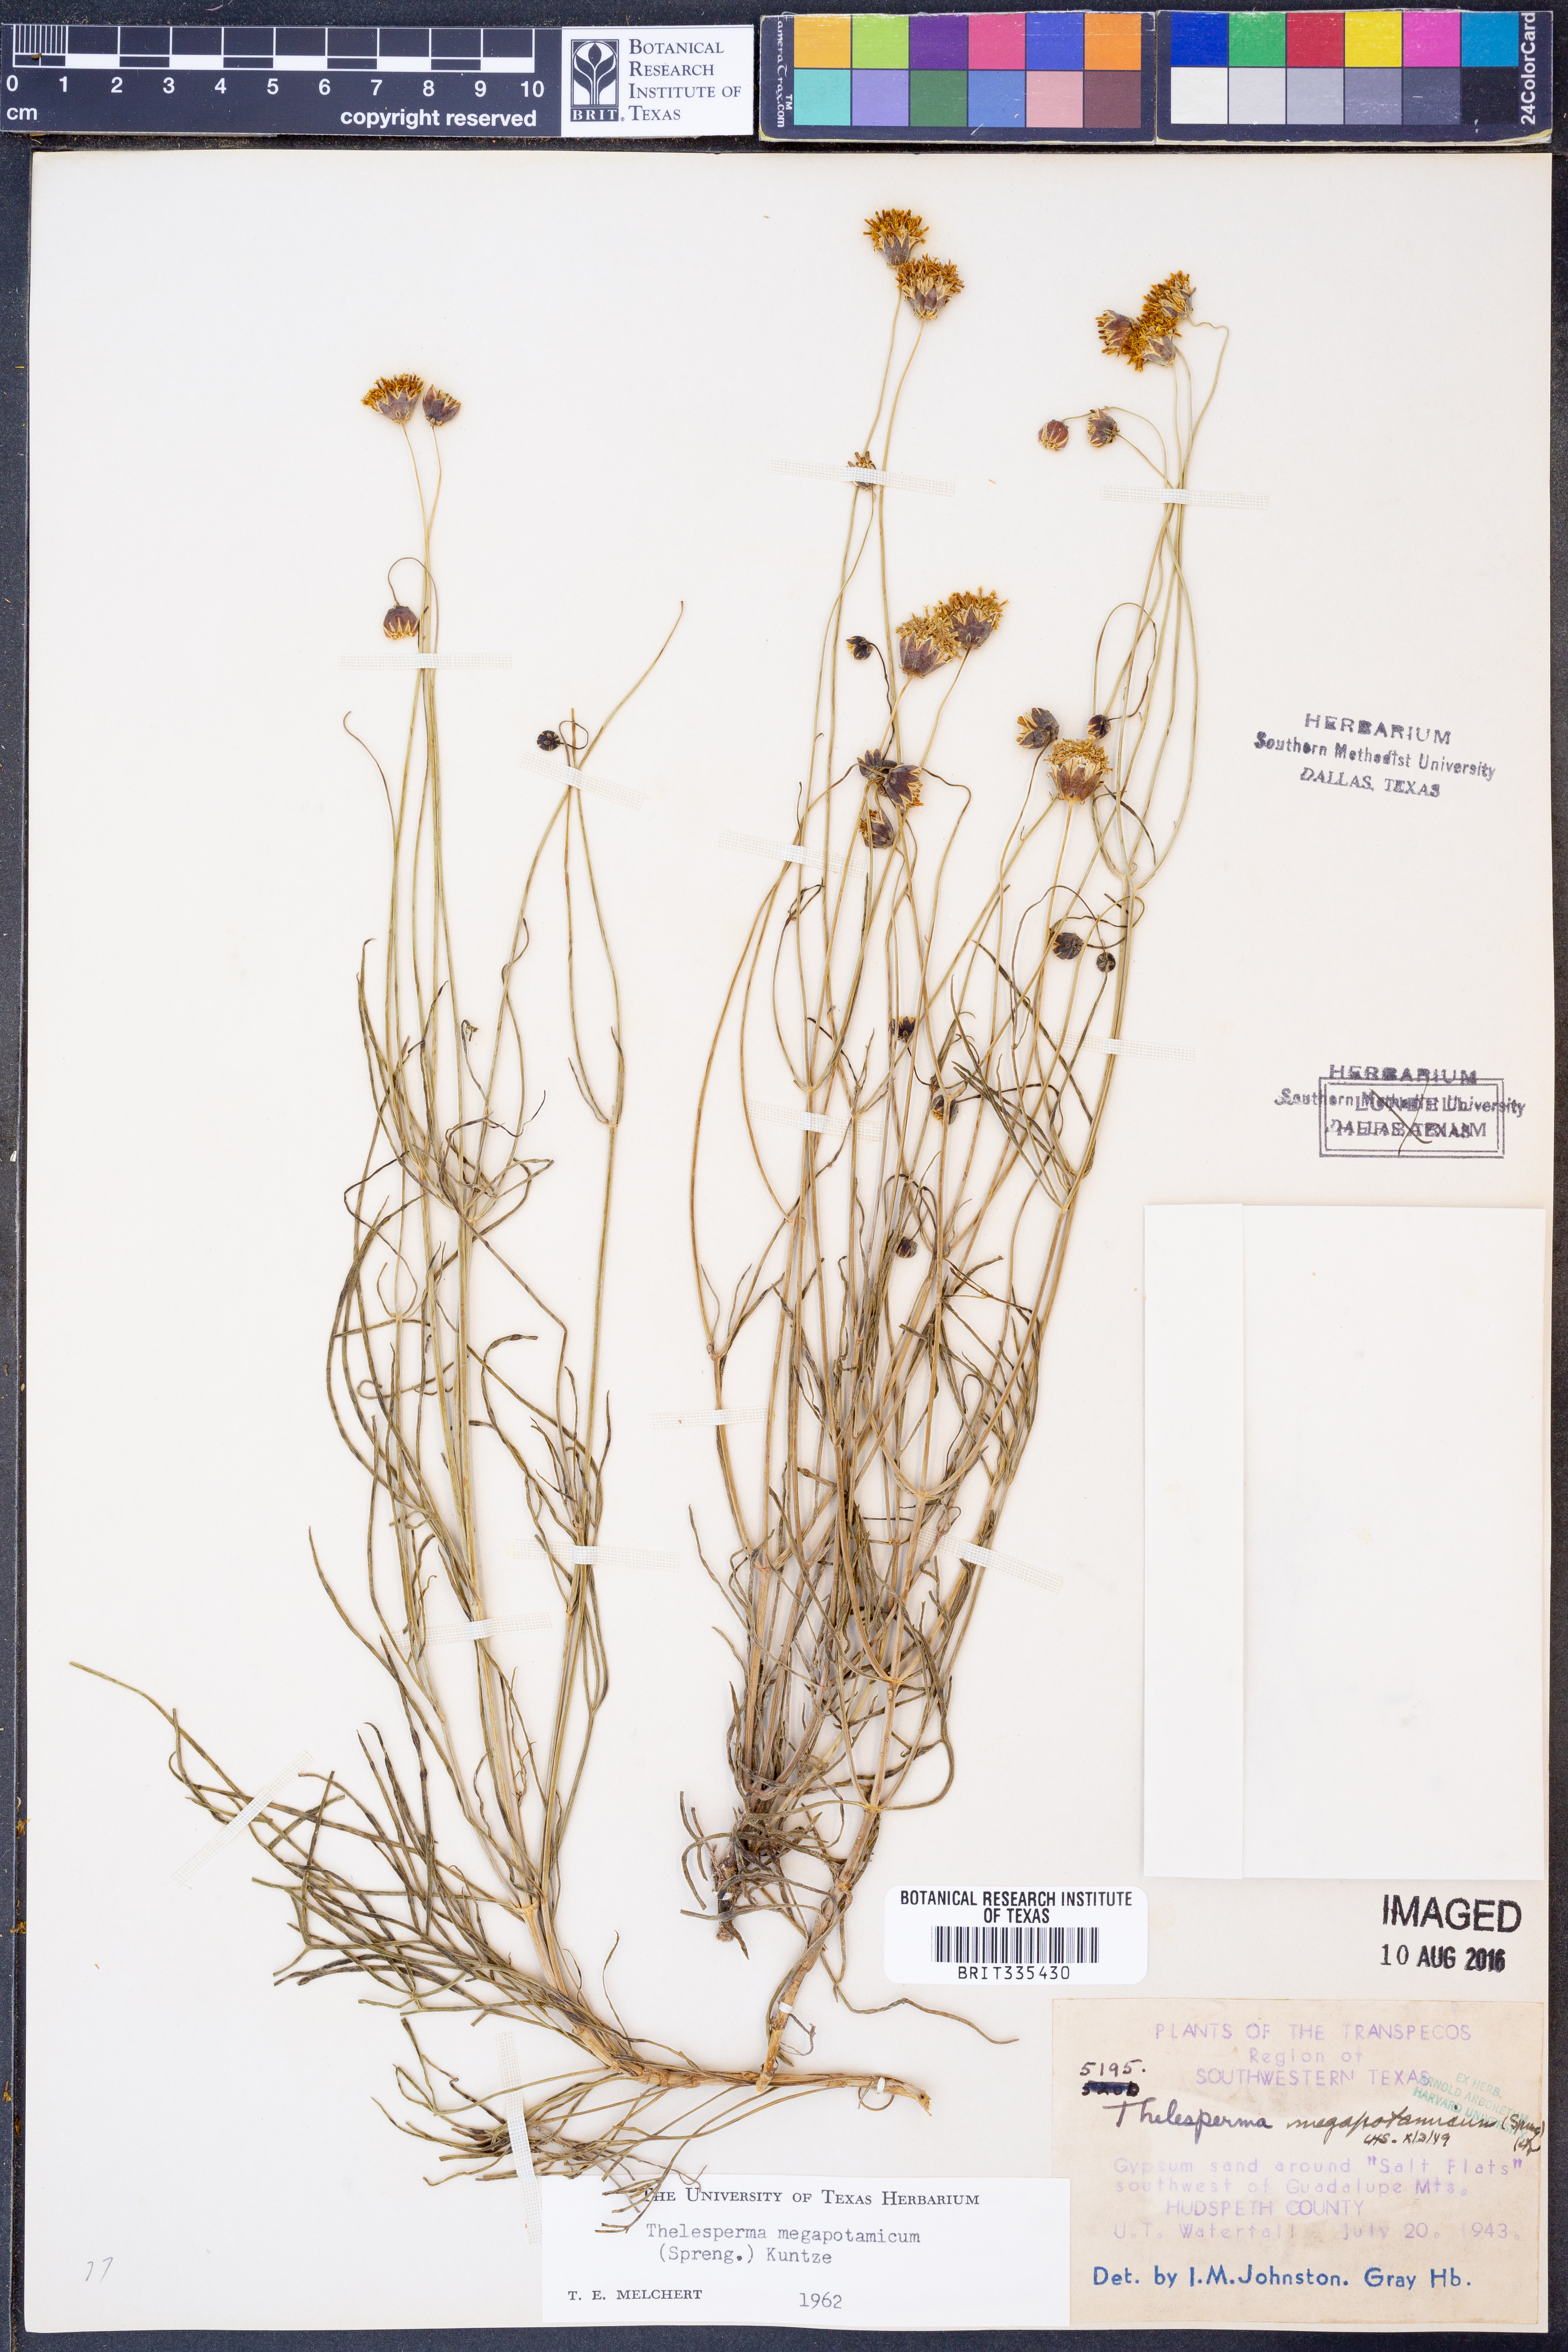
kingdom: Plantae
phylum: Tracheophyta
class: Magnoliopsida
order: Asterales
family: Asteraceae
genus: Thelesperma
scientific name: Thelesperma megapotamicum
